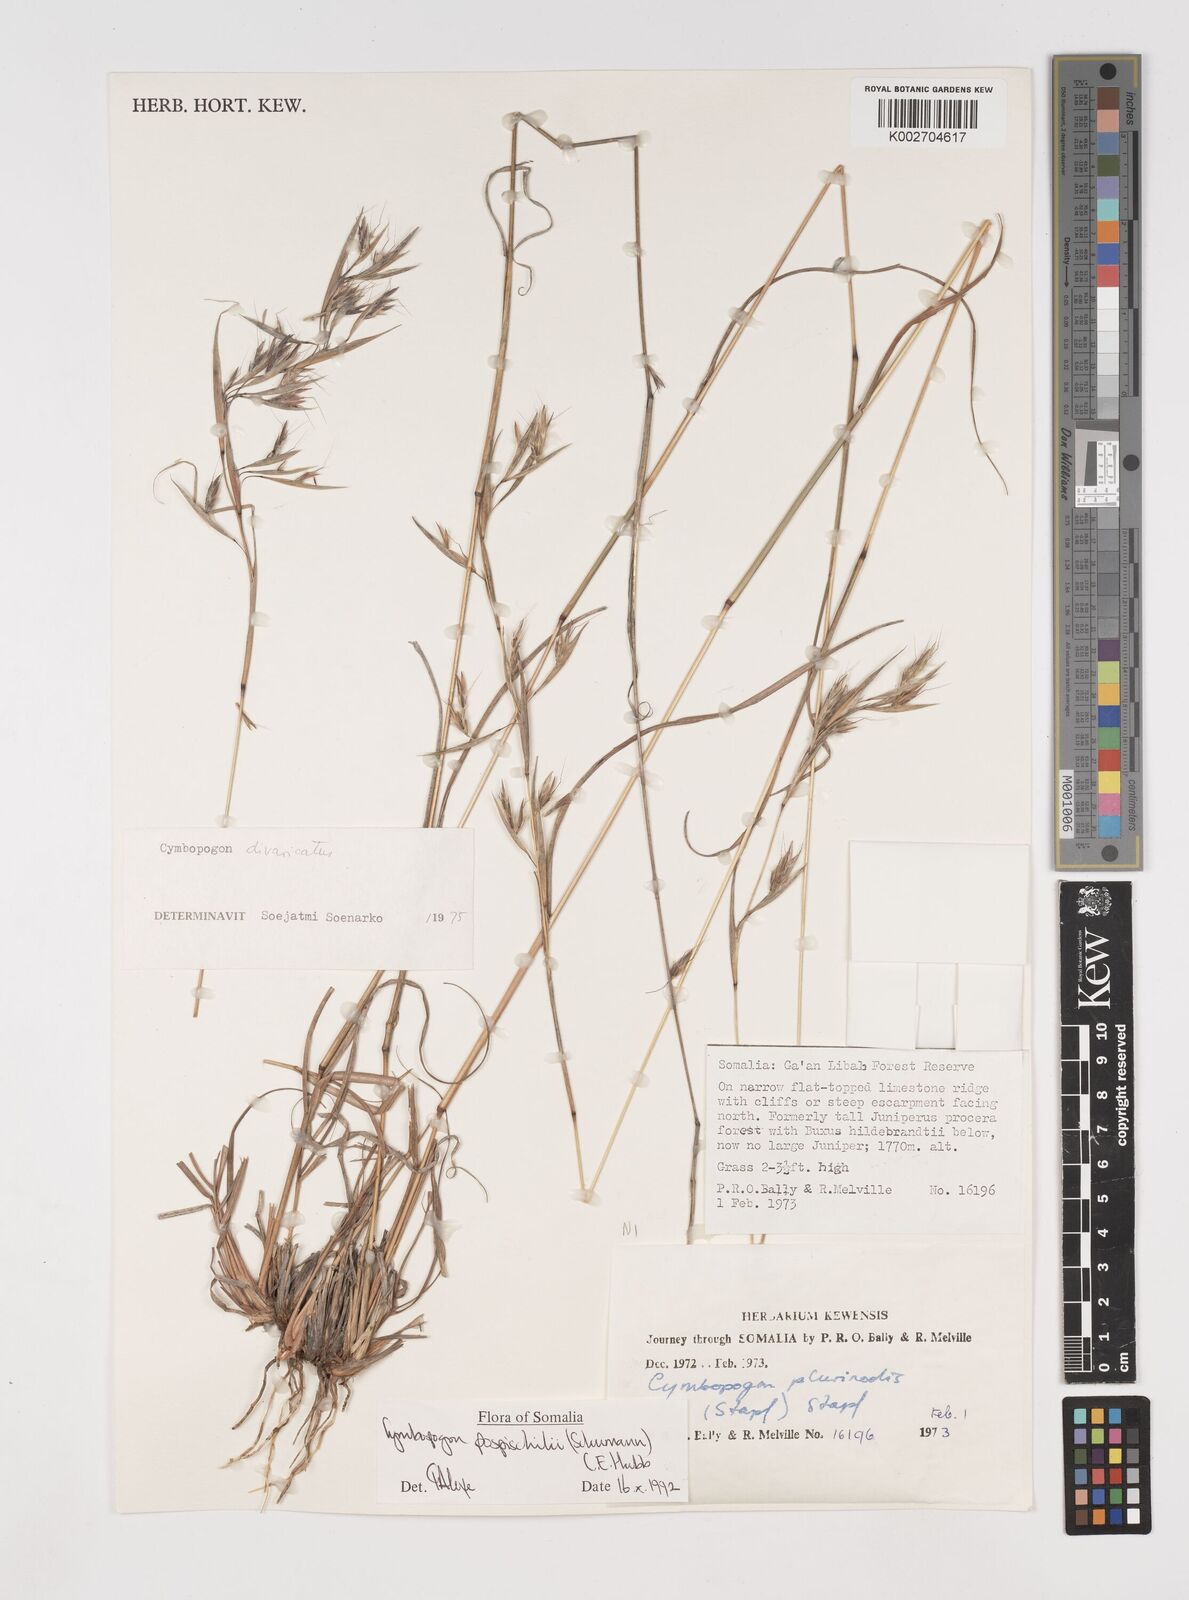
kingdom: Plantae
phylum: Tracheophyta
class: Liliopsida
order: Poales
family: Poaceae
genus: Cymbopogon
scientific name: Cymbopogon pospischilii
